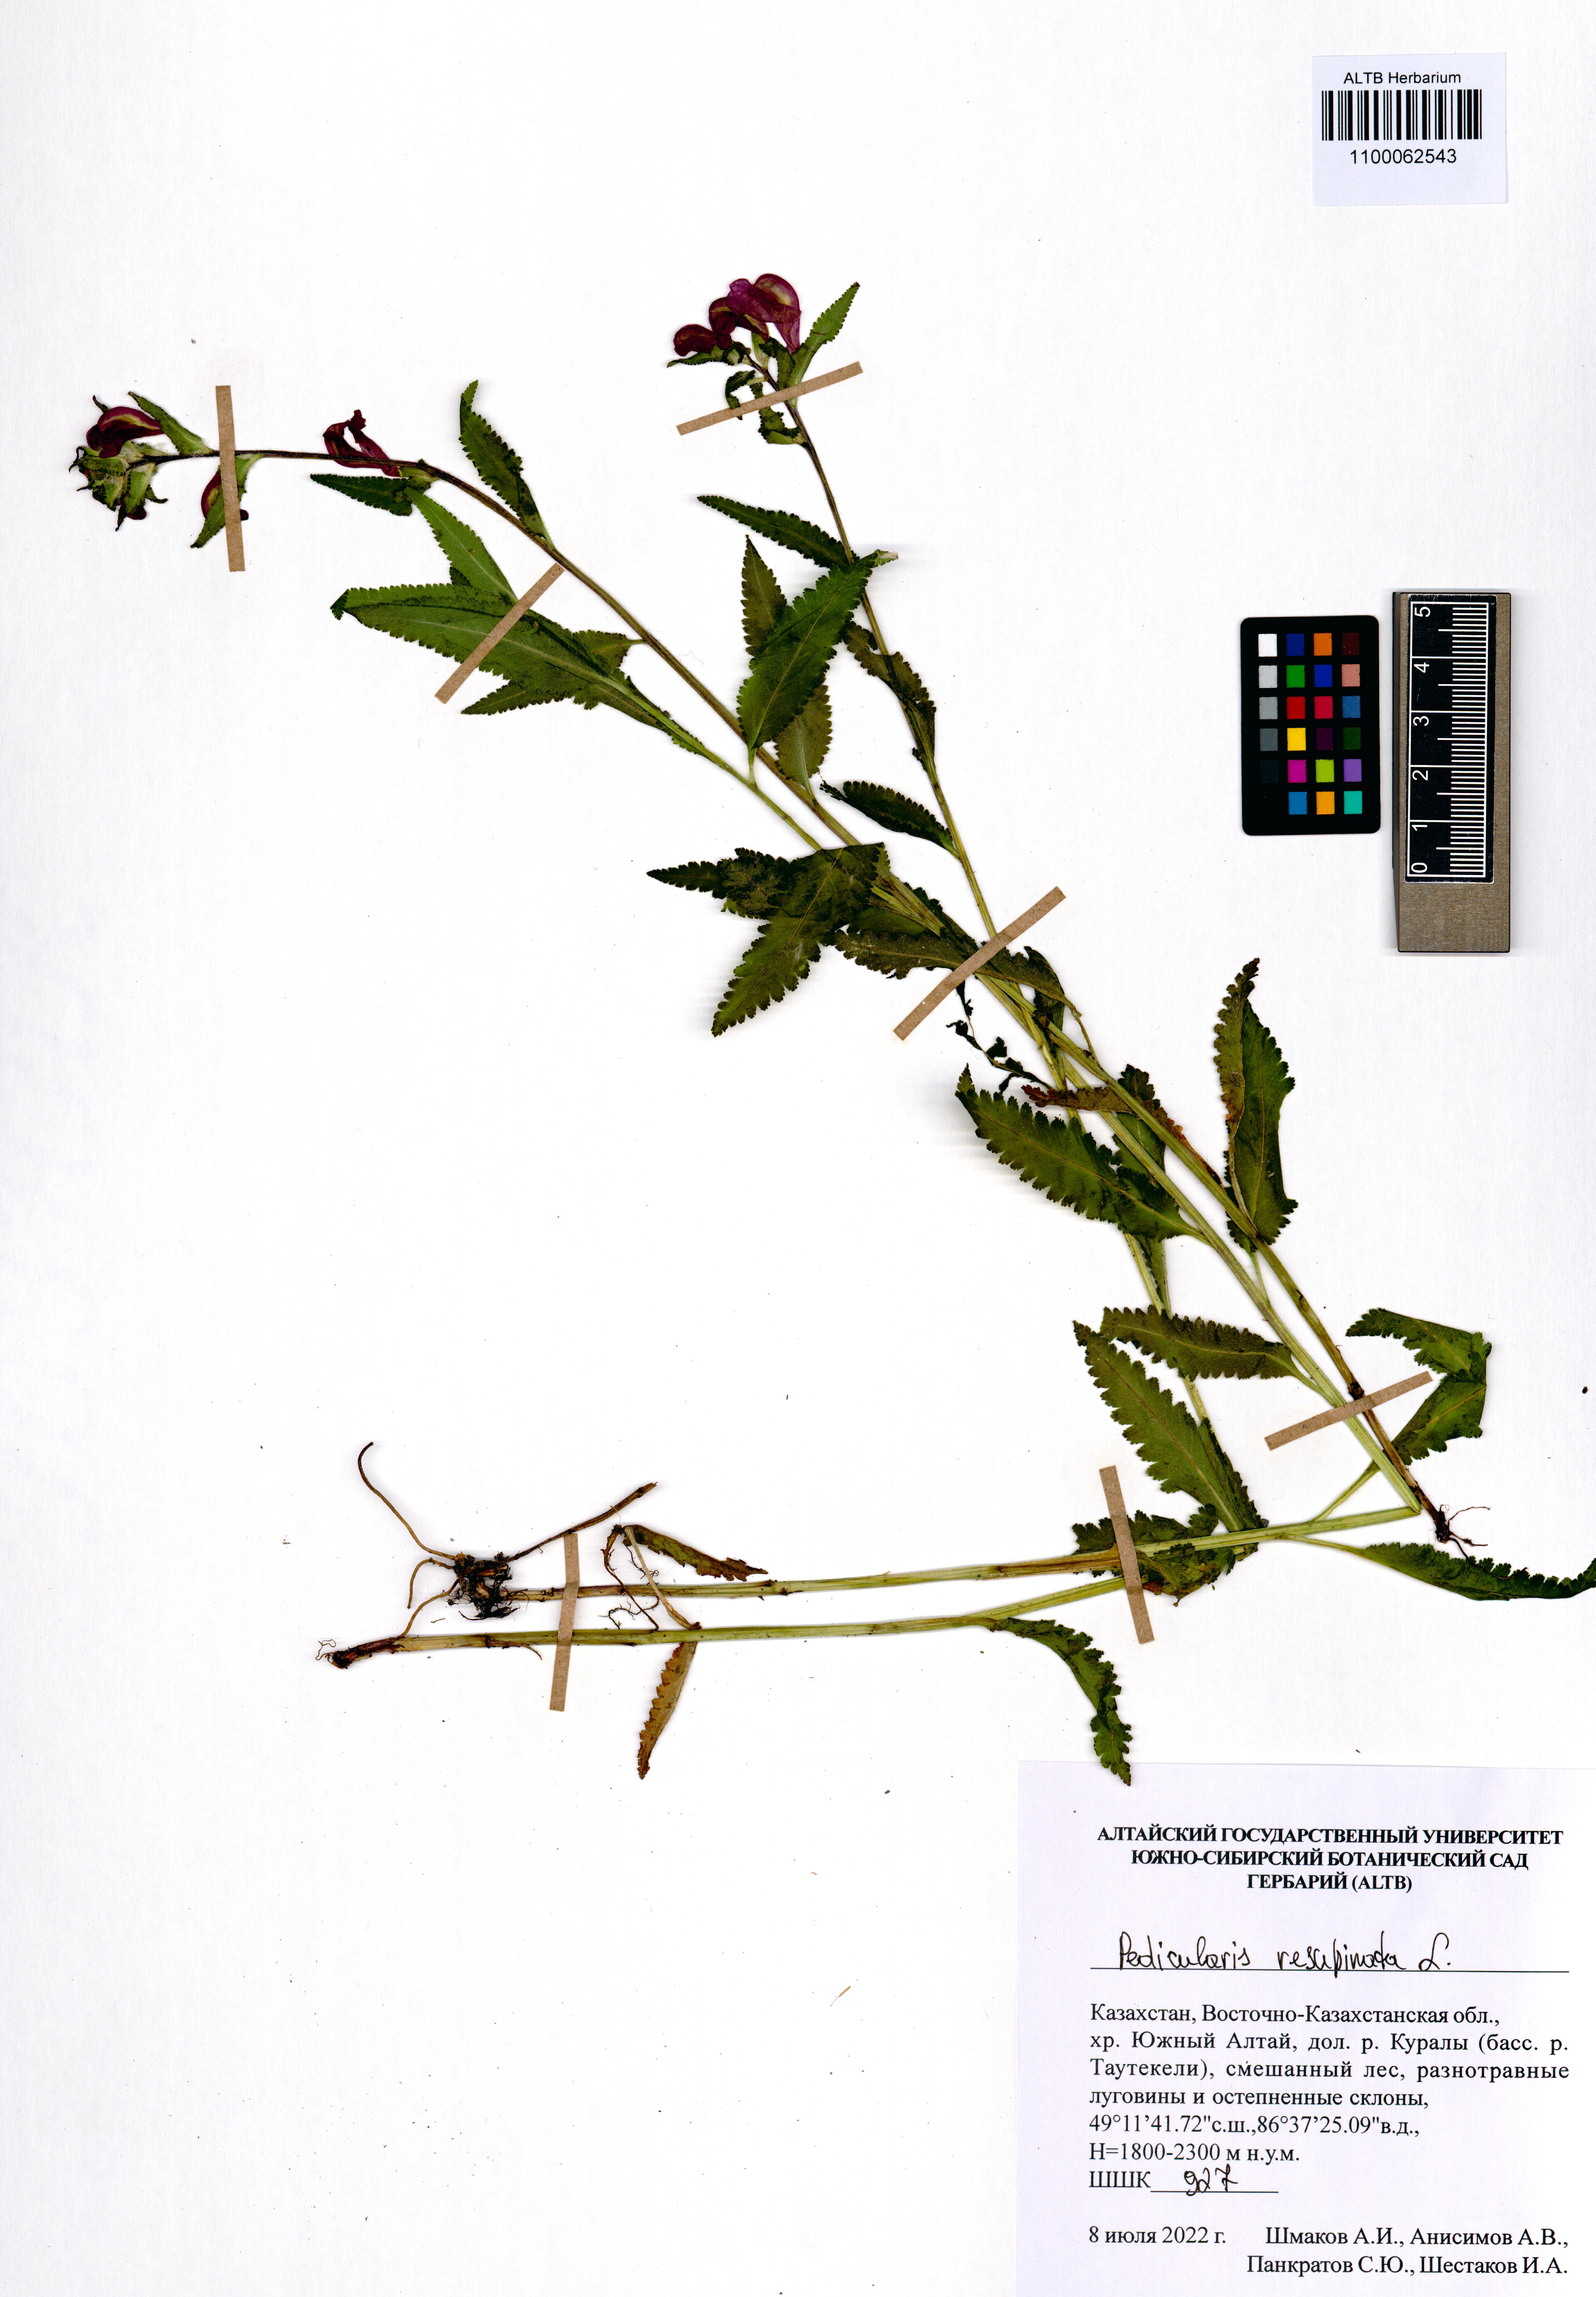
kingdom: Plantae
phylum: Tracheophyta
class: Magnoliopsida
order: Lamiales
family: Orobanchaceae
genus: Pedicularis
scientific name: Pedicularis resupinata
